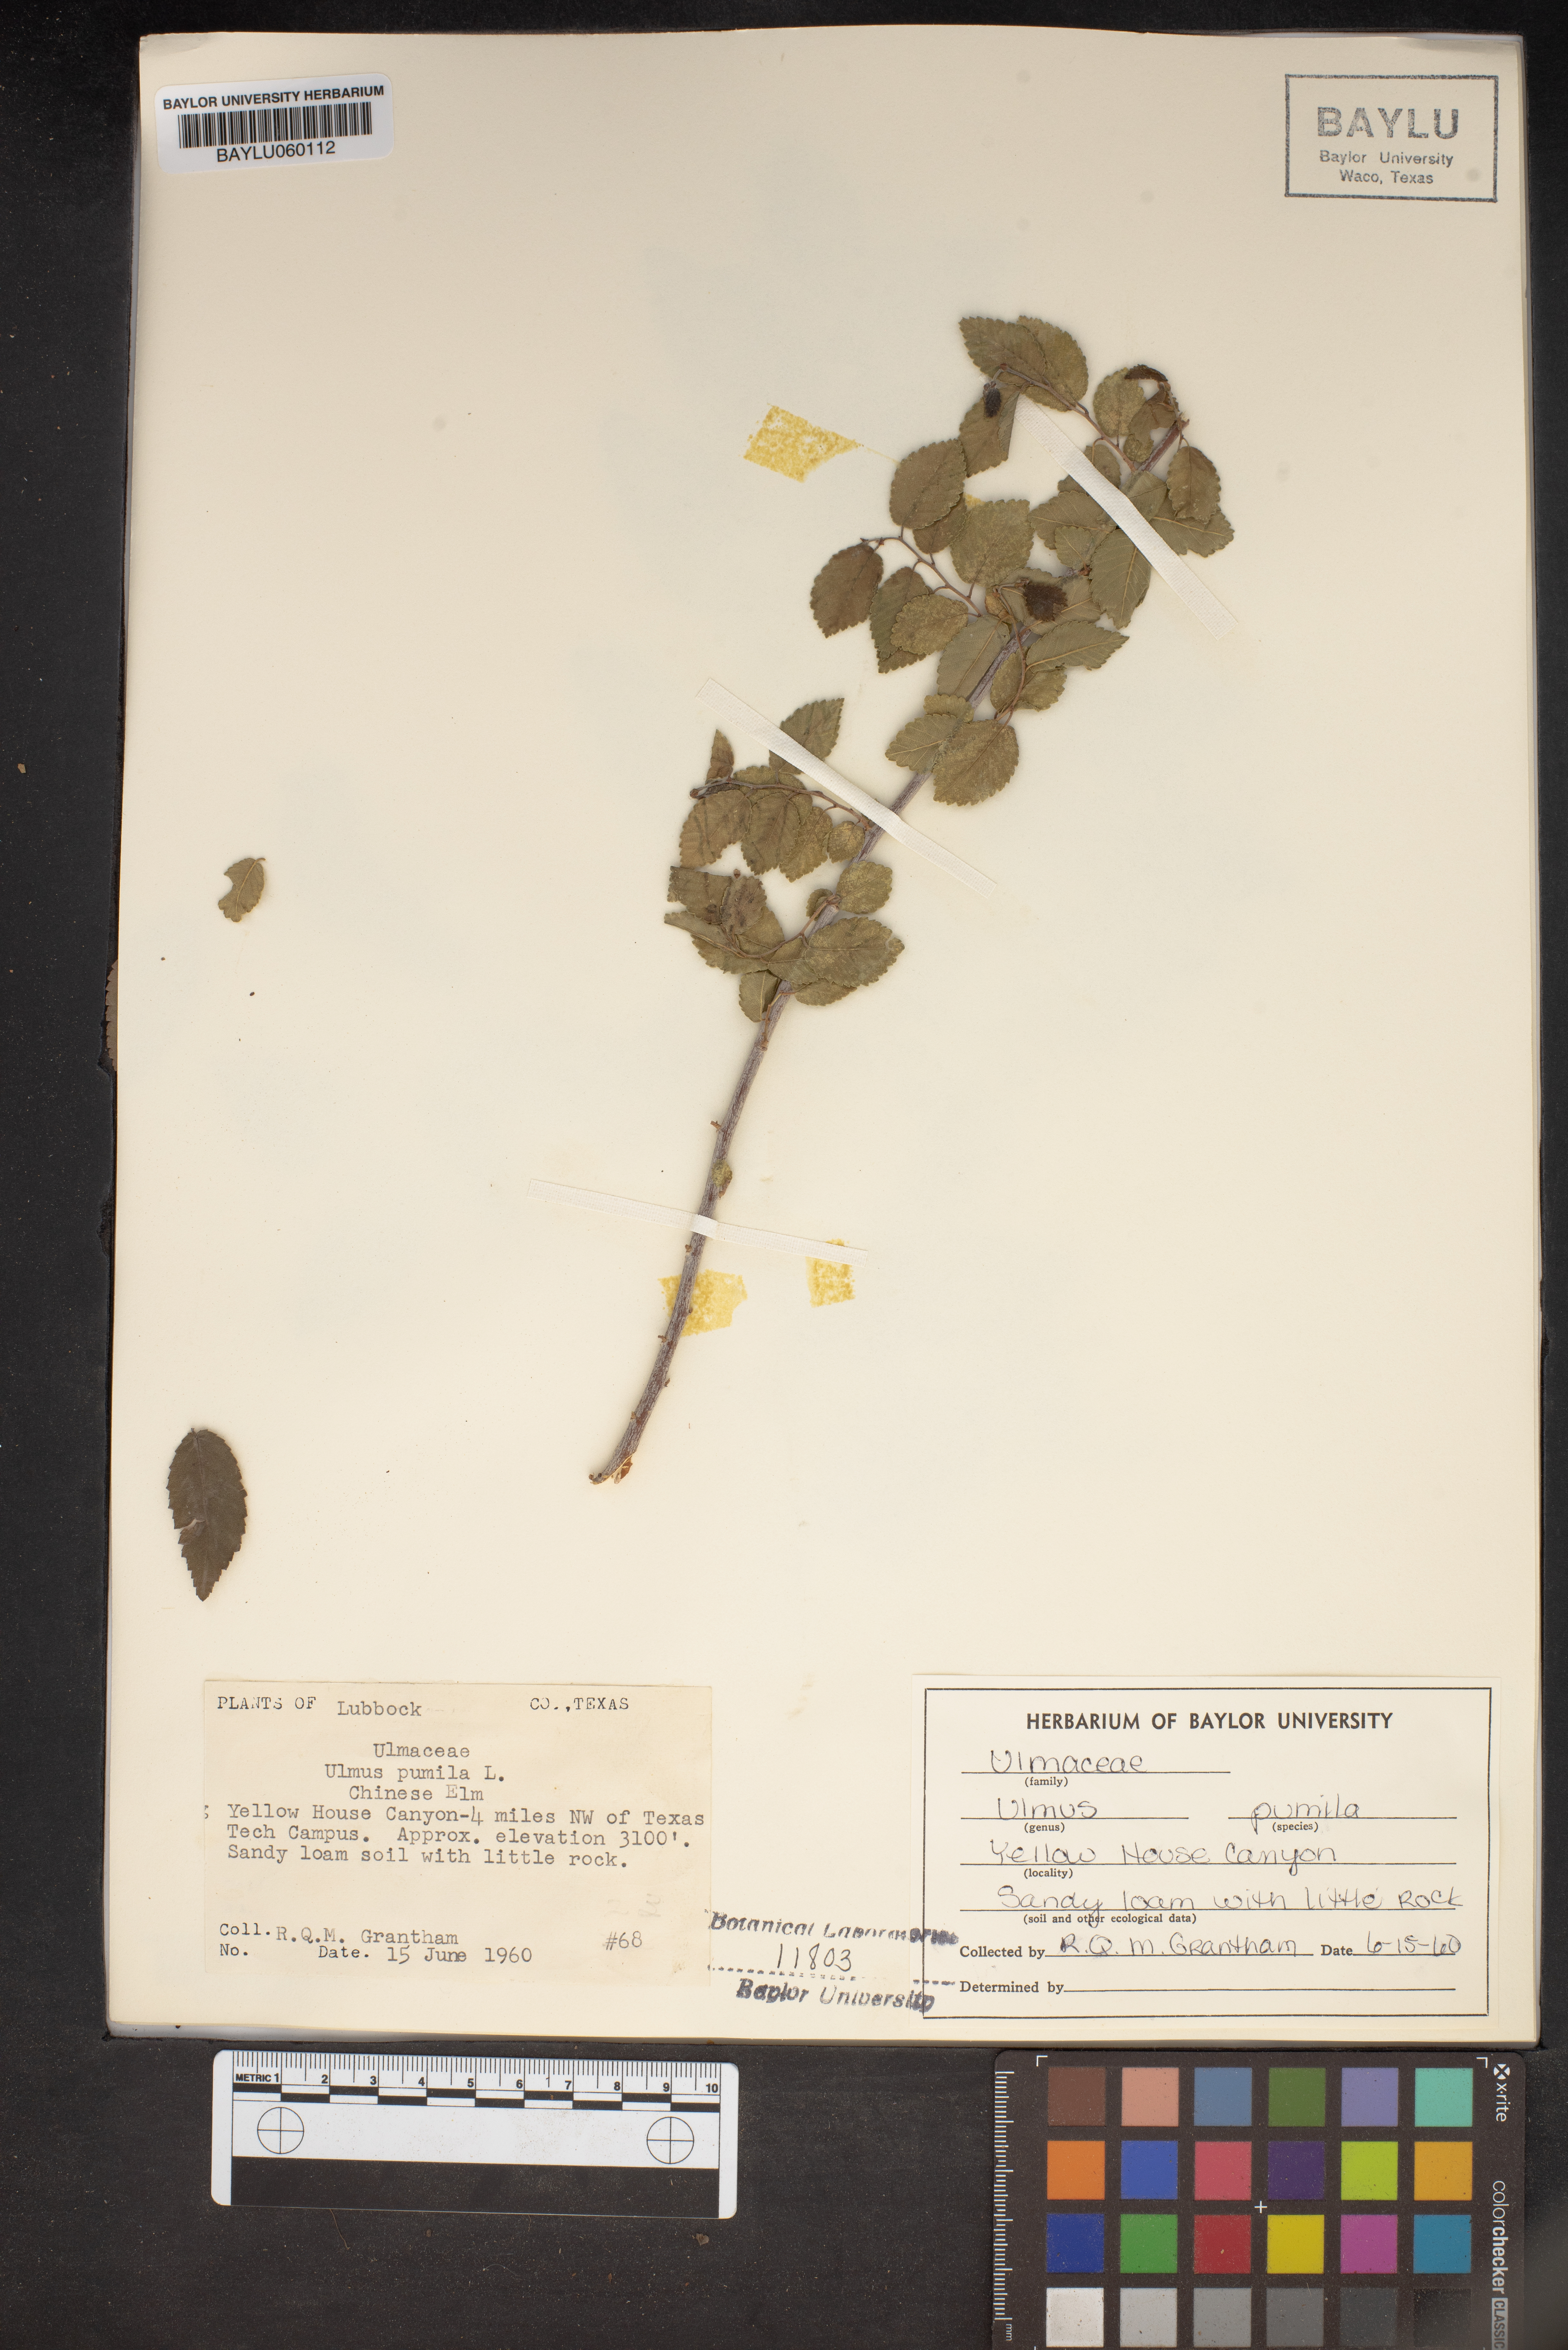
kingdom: Plantae
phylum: Tracheophyta
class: Magnoliopsida
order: Rosales
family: Ulmaceae
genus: Ulmus
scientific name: Ulmus pumila
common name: Siberian elm
